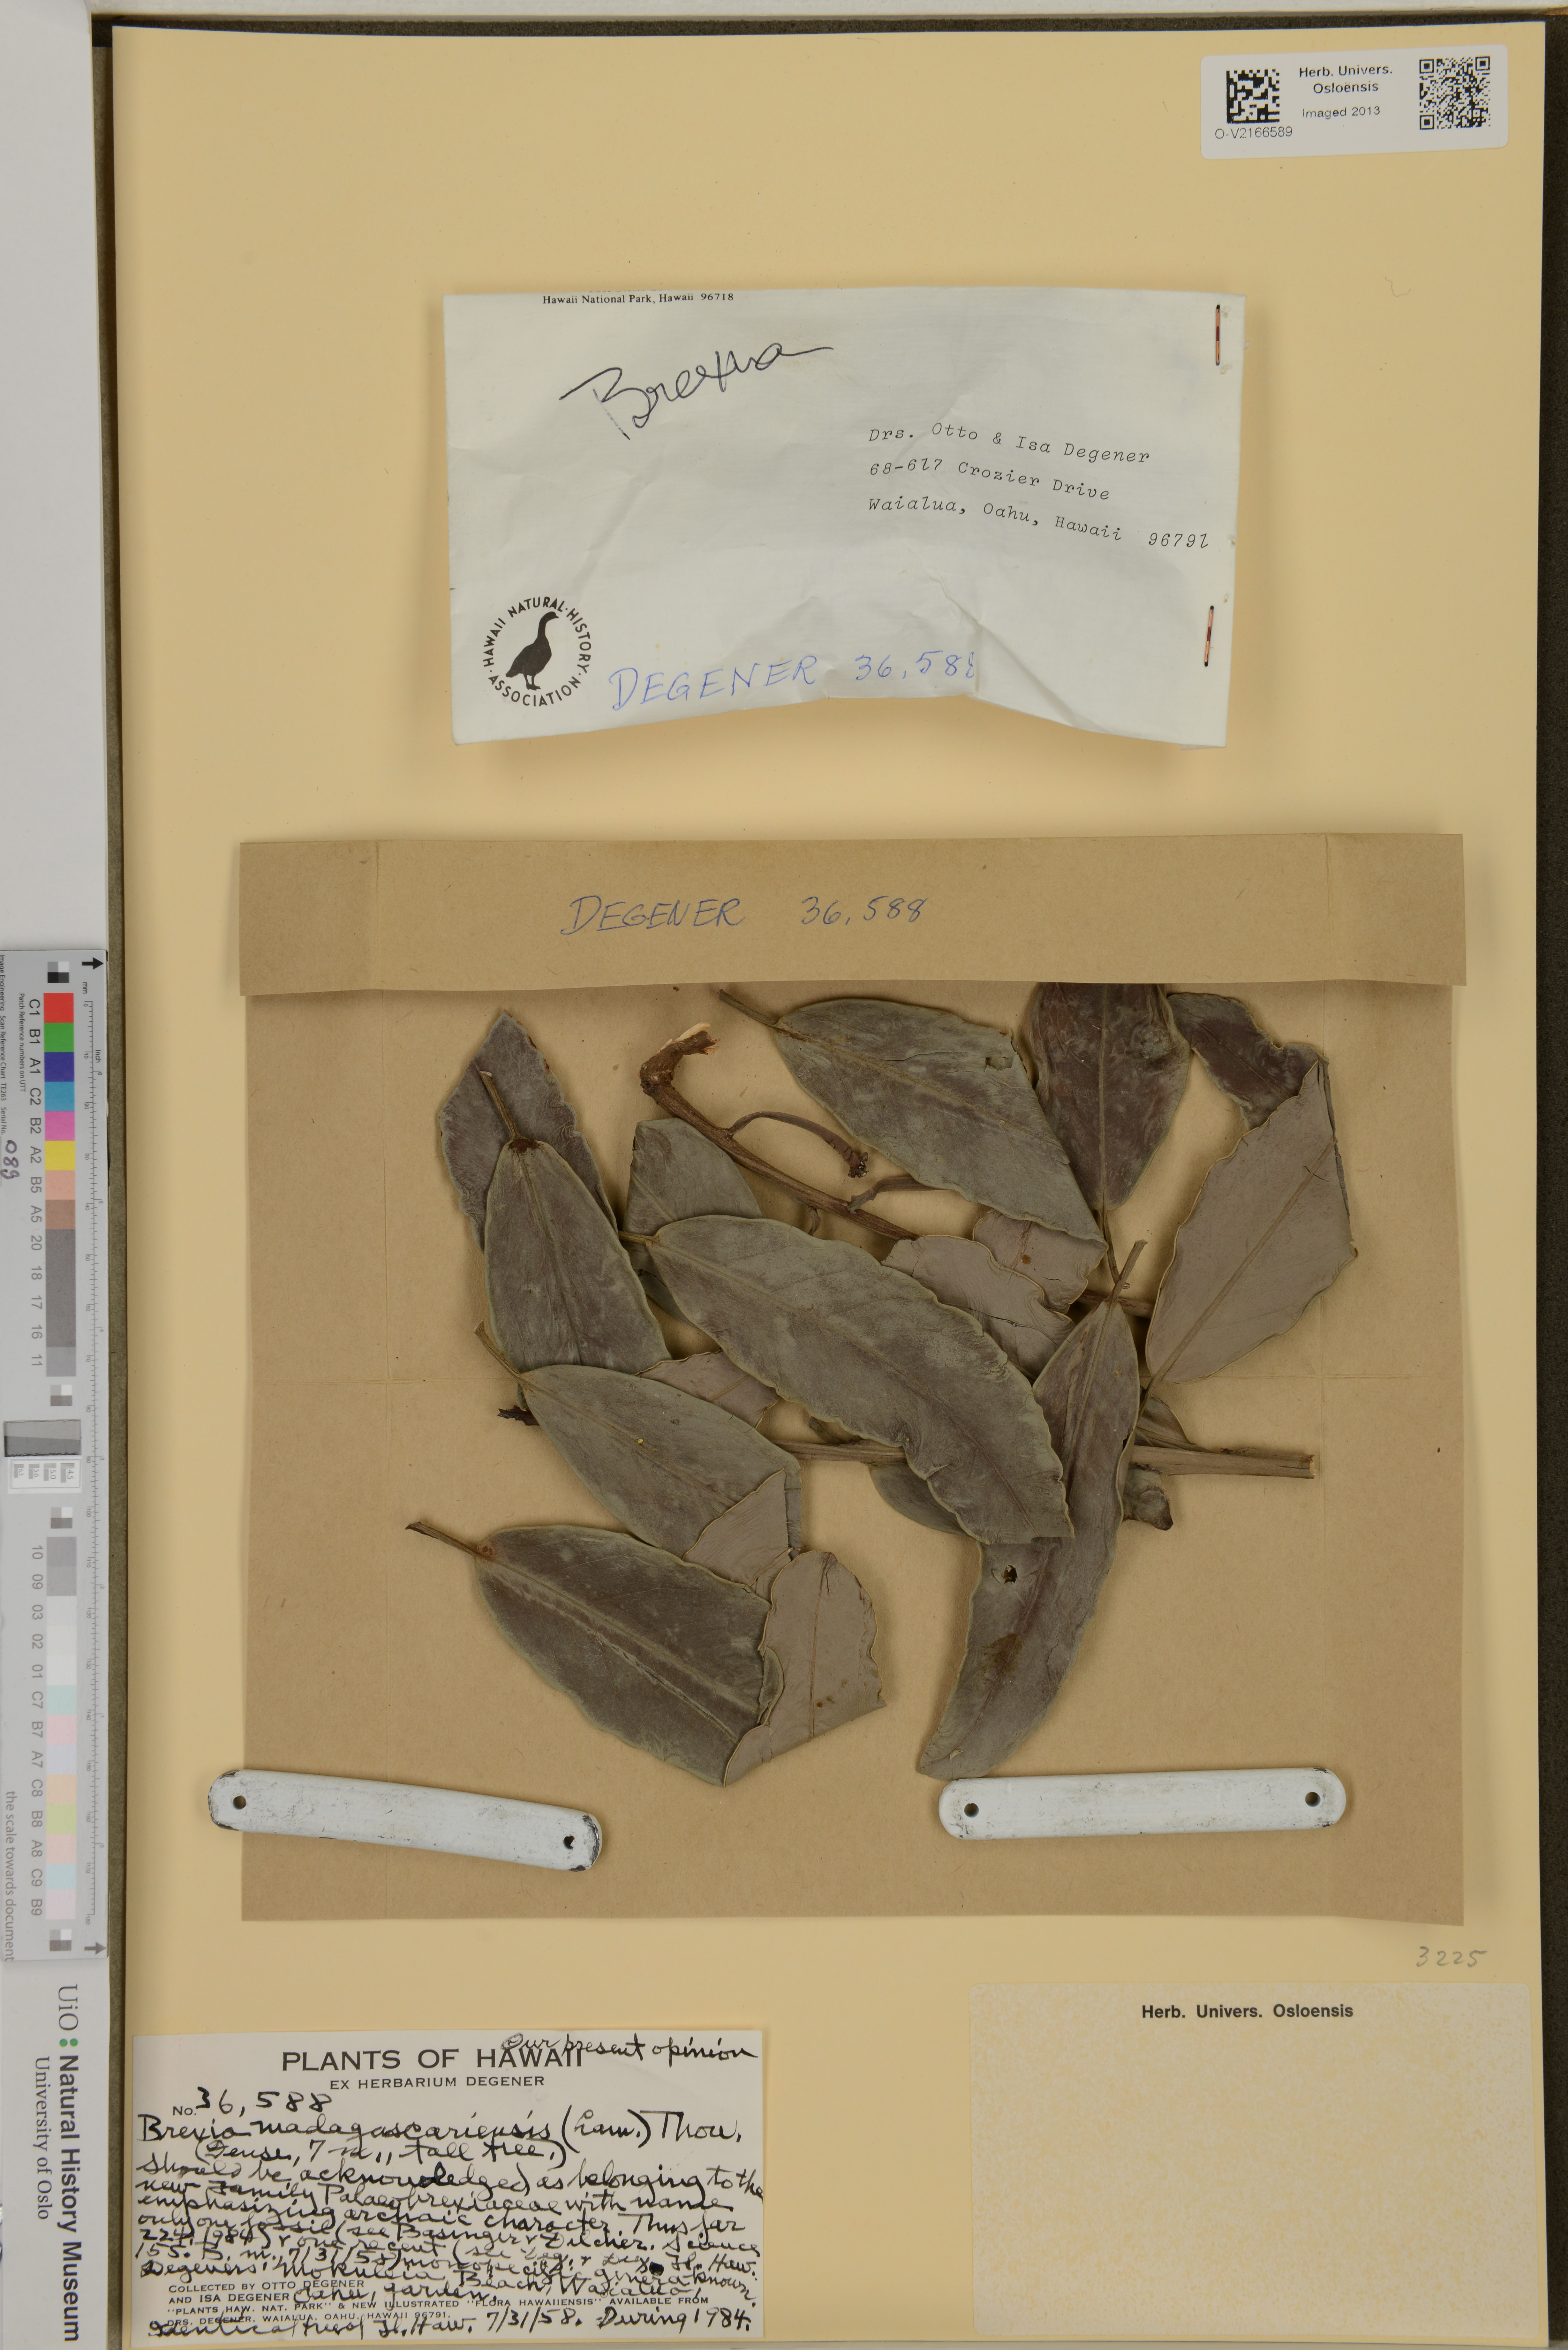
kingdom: Plantae
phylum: Tracheophyta
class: Magnoliopsida
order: Celastrales
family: Celastraceae
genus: Brexia
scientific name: Brexia madagascariensis
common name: Brexia
